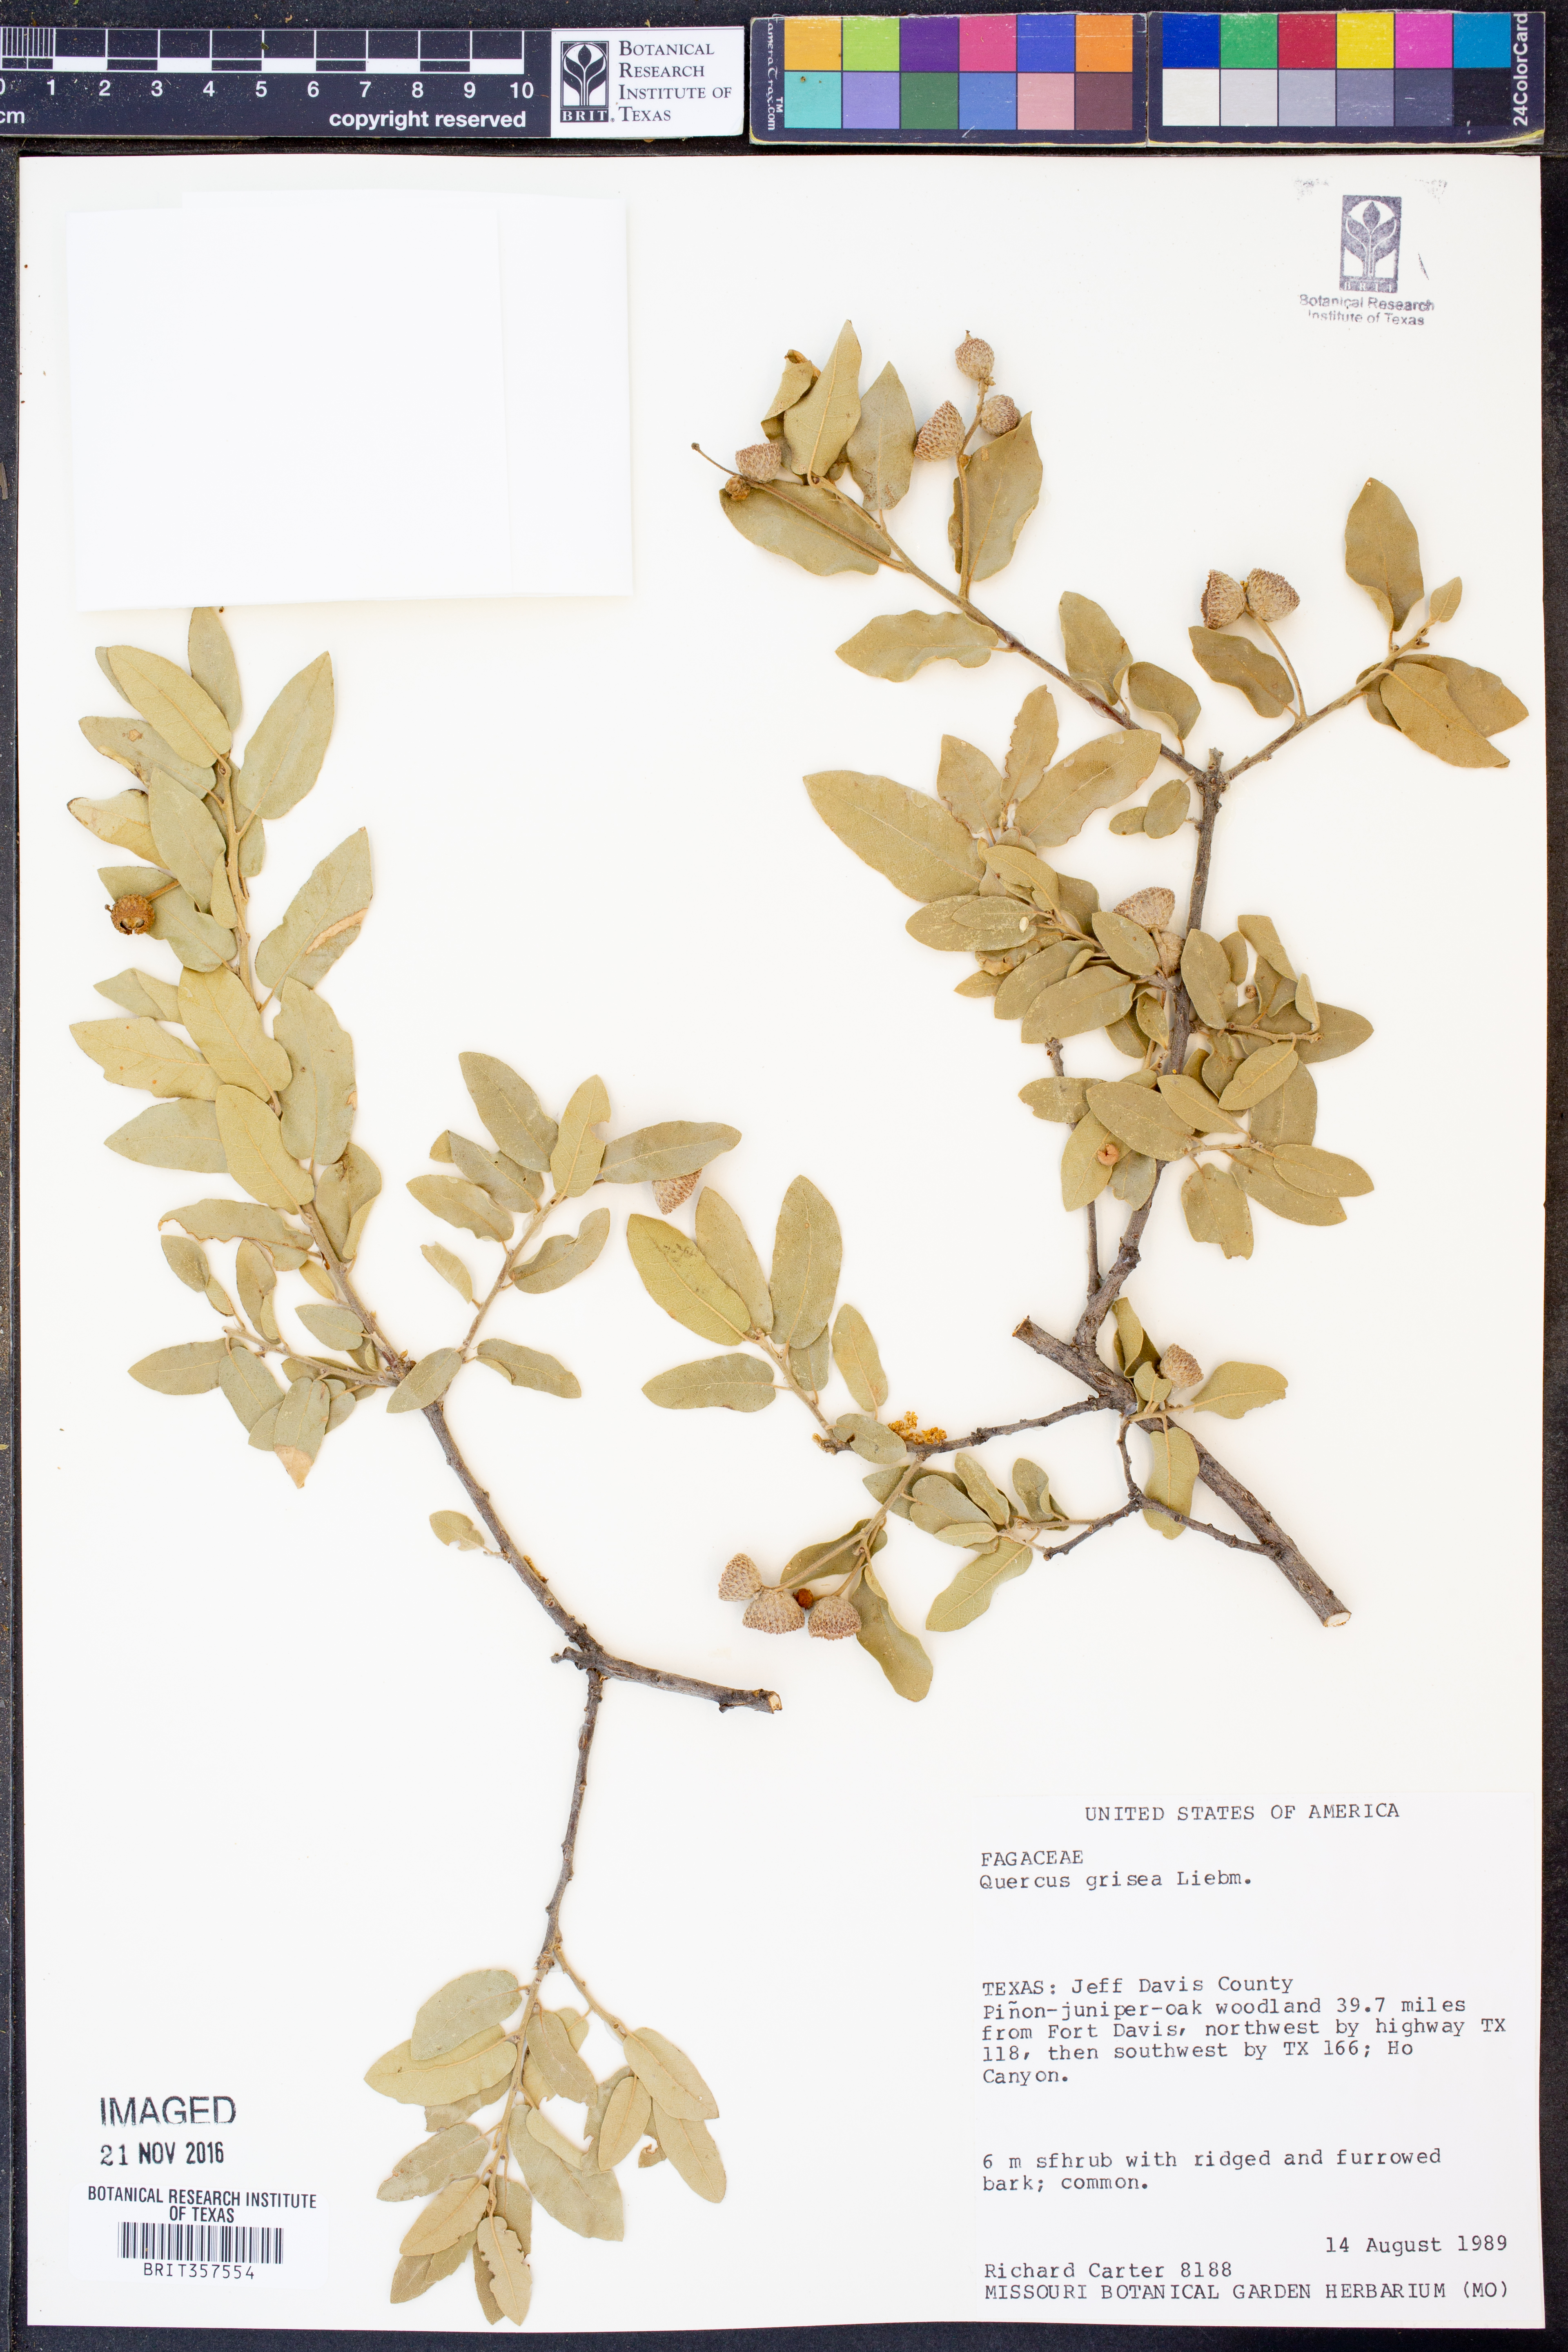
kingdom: Plantae
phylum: Tracheophyta
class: Magnoliopsida
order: Fagales
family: Fagaceae
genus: Quercus
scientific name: Quercus grisea
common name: Gray oak
